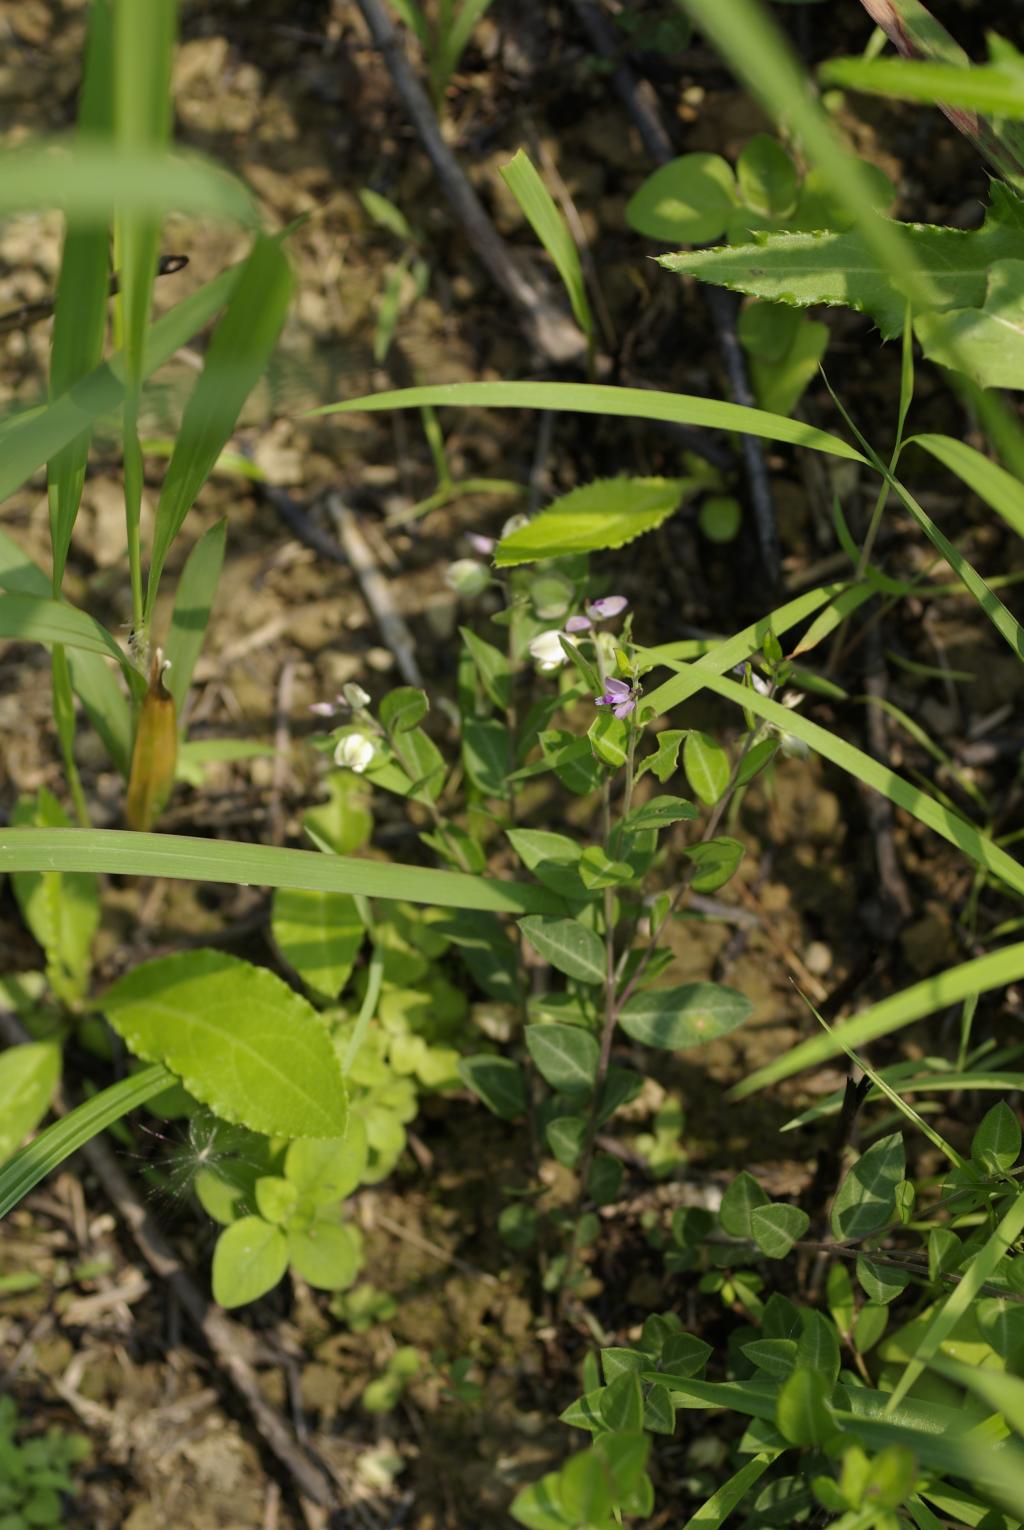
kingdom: Plantae
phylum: Tracheophyta
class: Magnoliopsida
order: Fabales
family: Polygalaceae
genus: Polygala
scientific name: Polygala japonica
